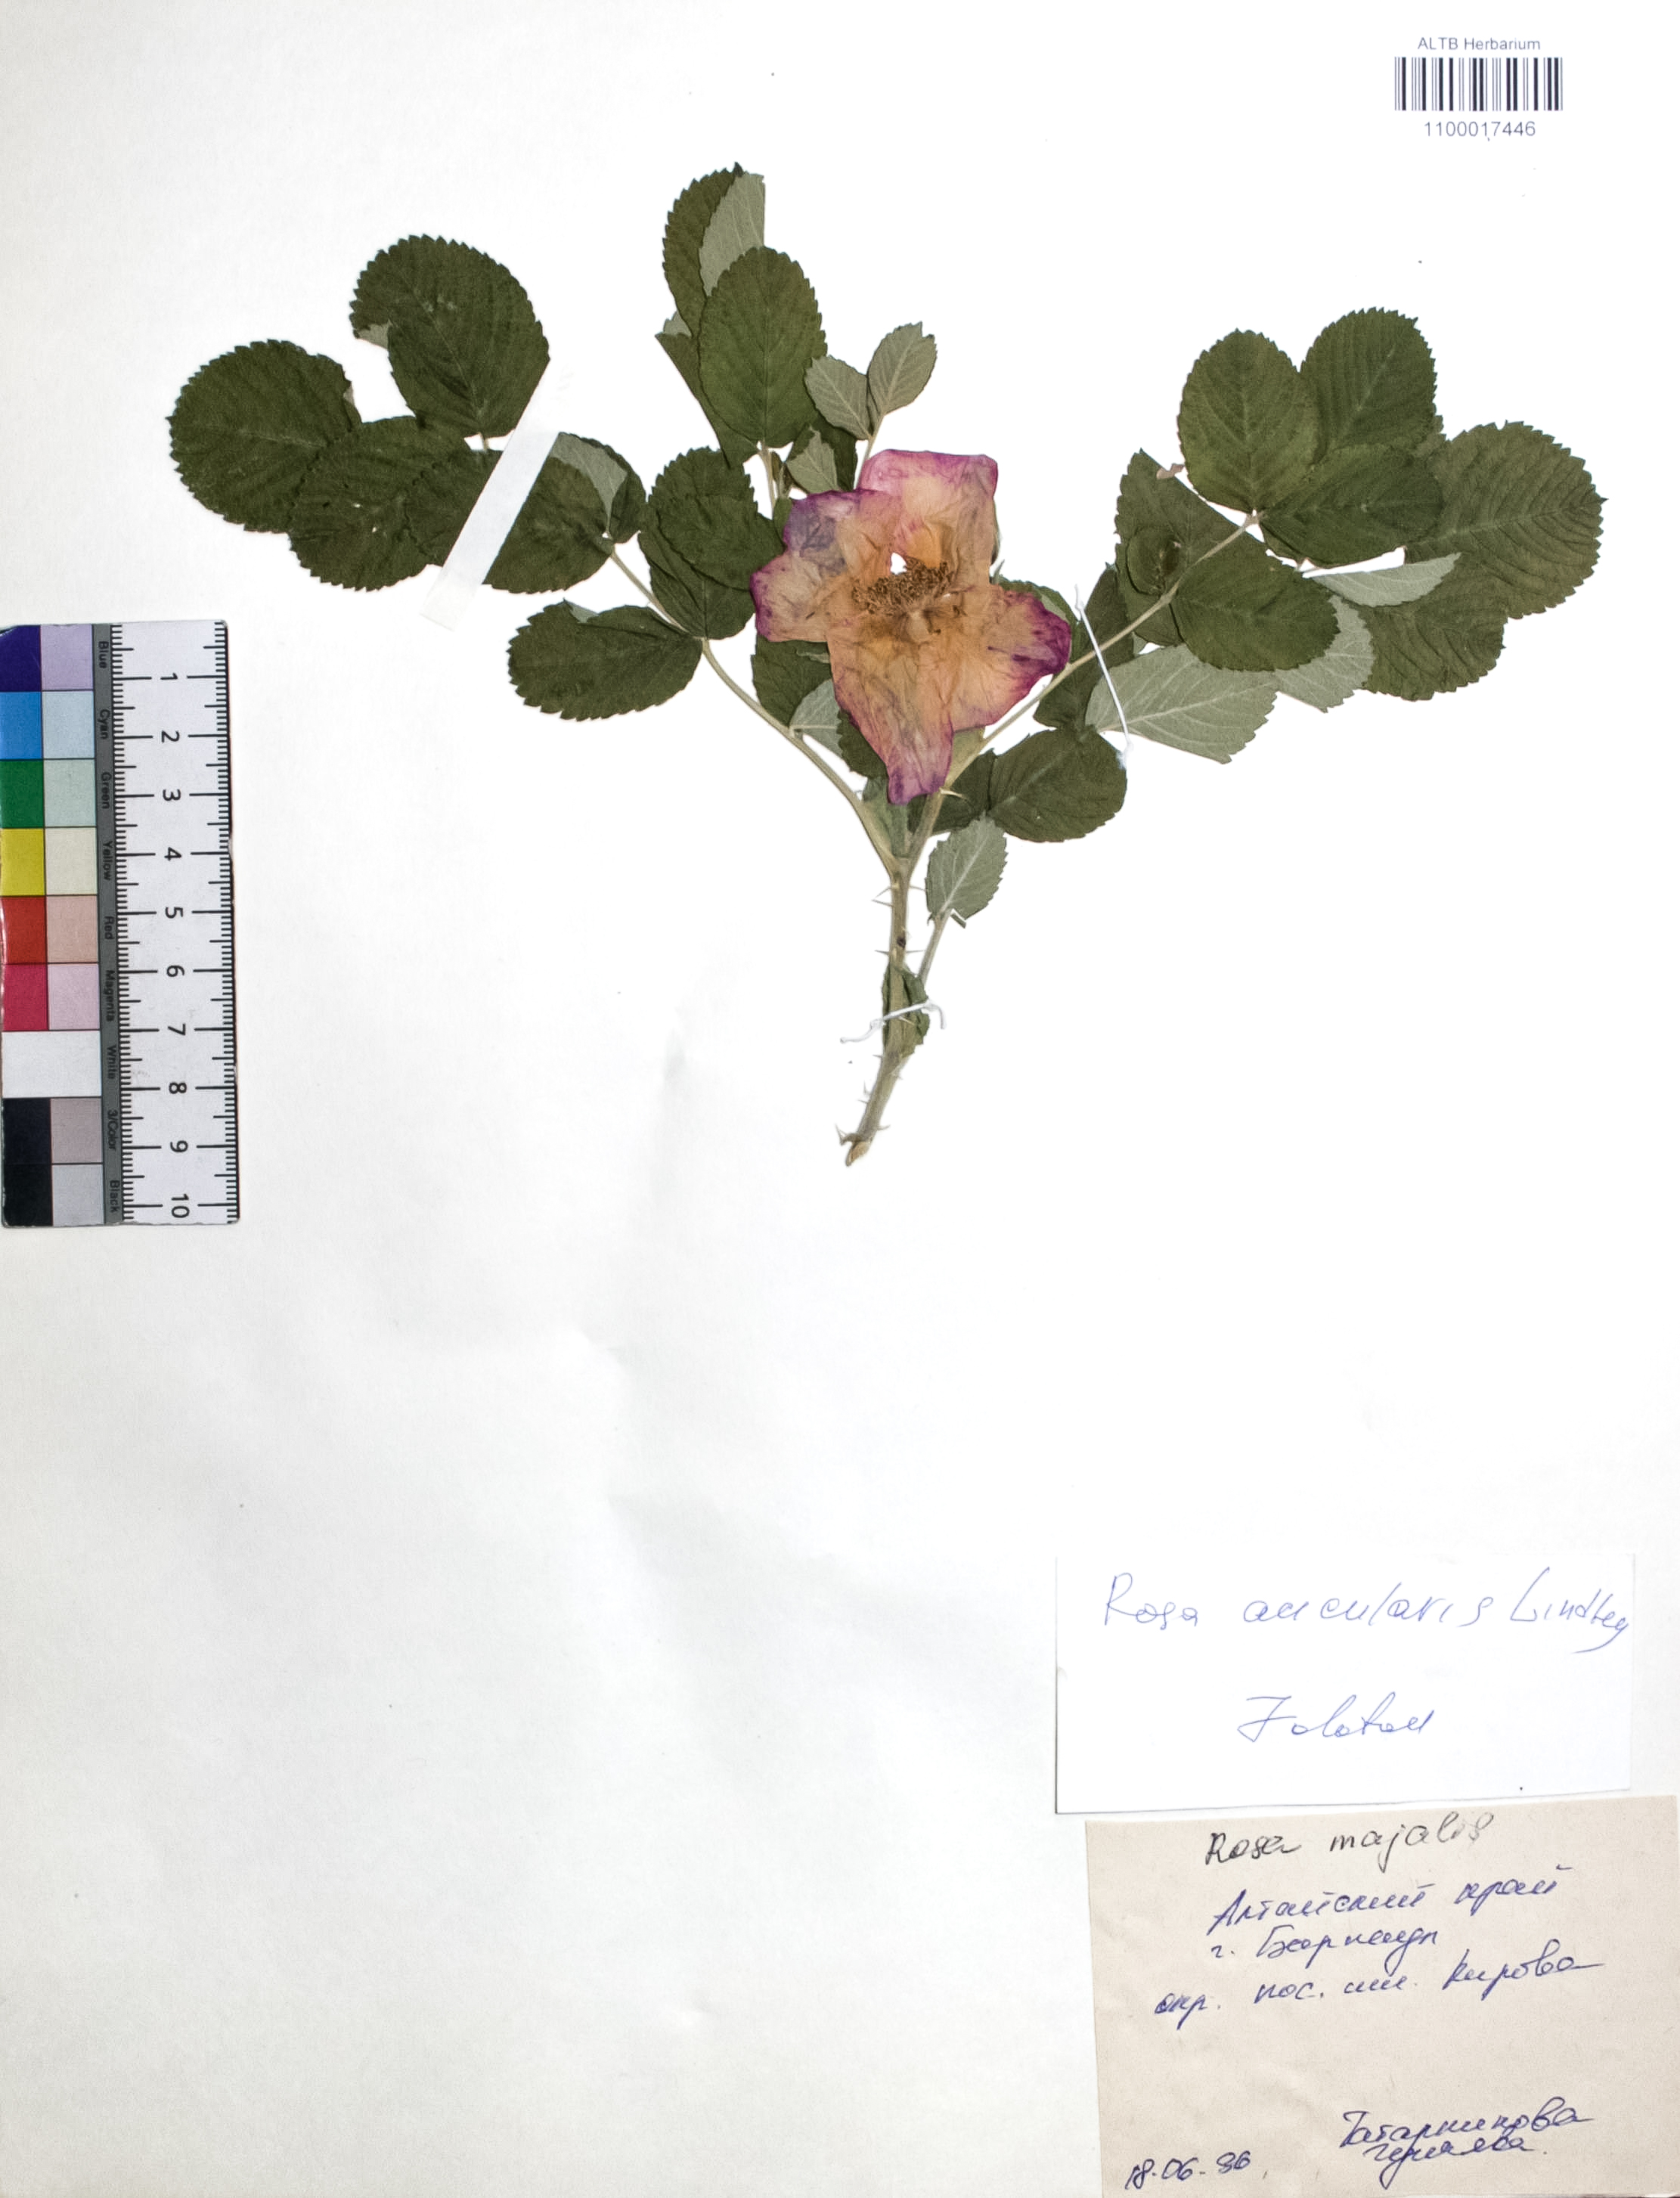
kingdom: Plantae
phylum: Tracheophyta
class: Magnoliopsida
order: Rosales
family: Rosaceae
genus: Rosa
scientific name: Rosa acicularis
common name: Prickly rose
